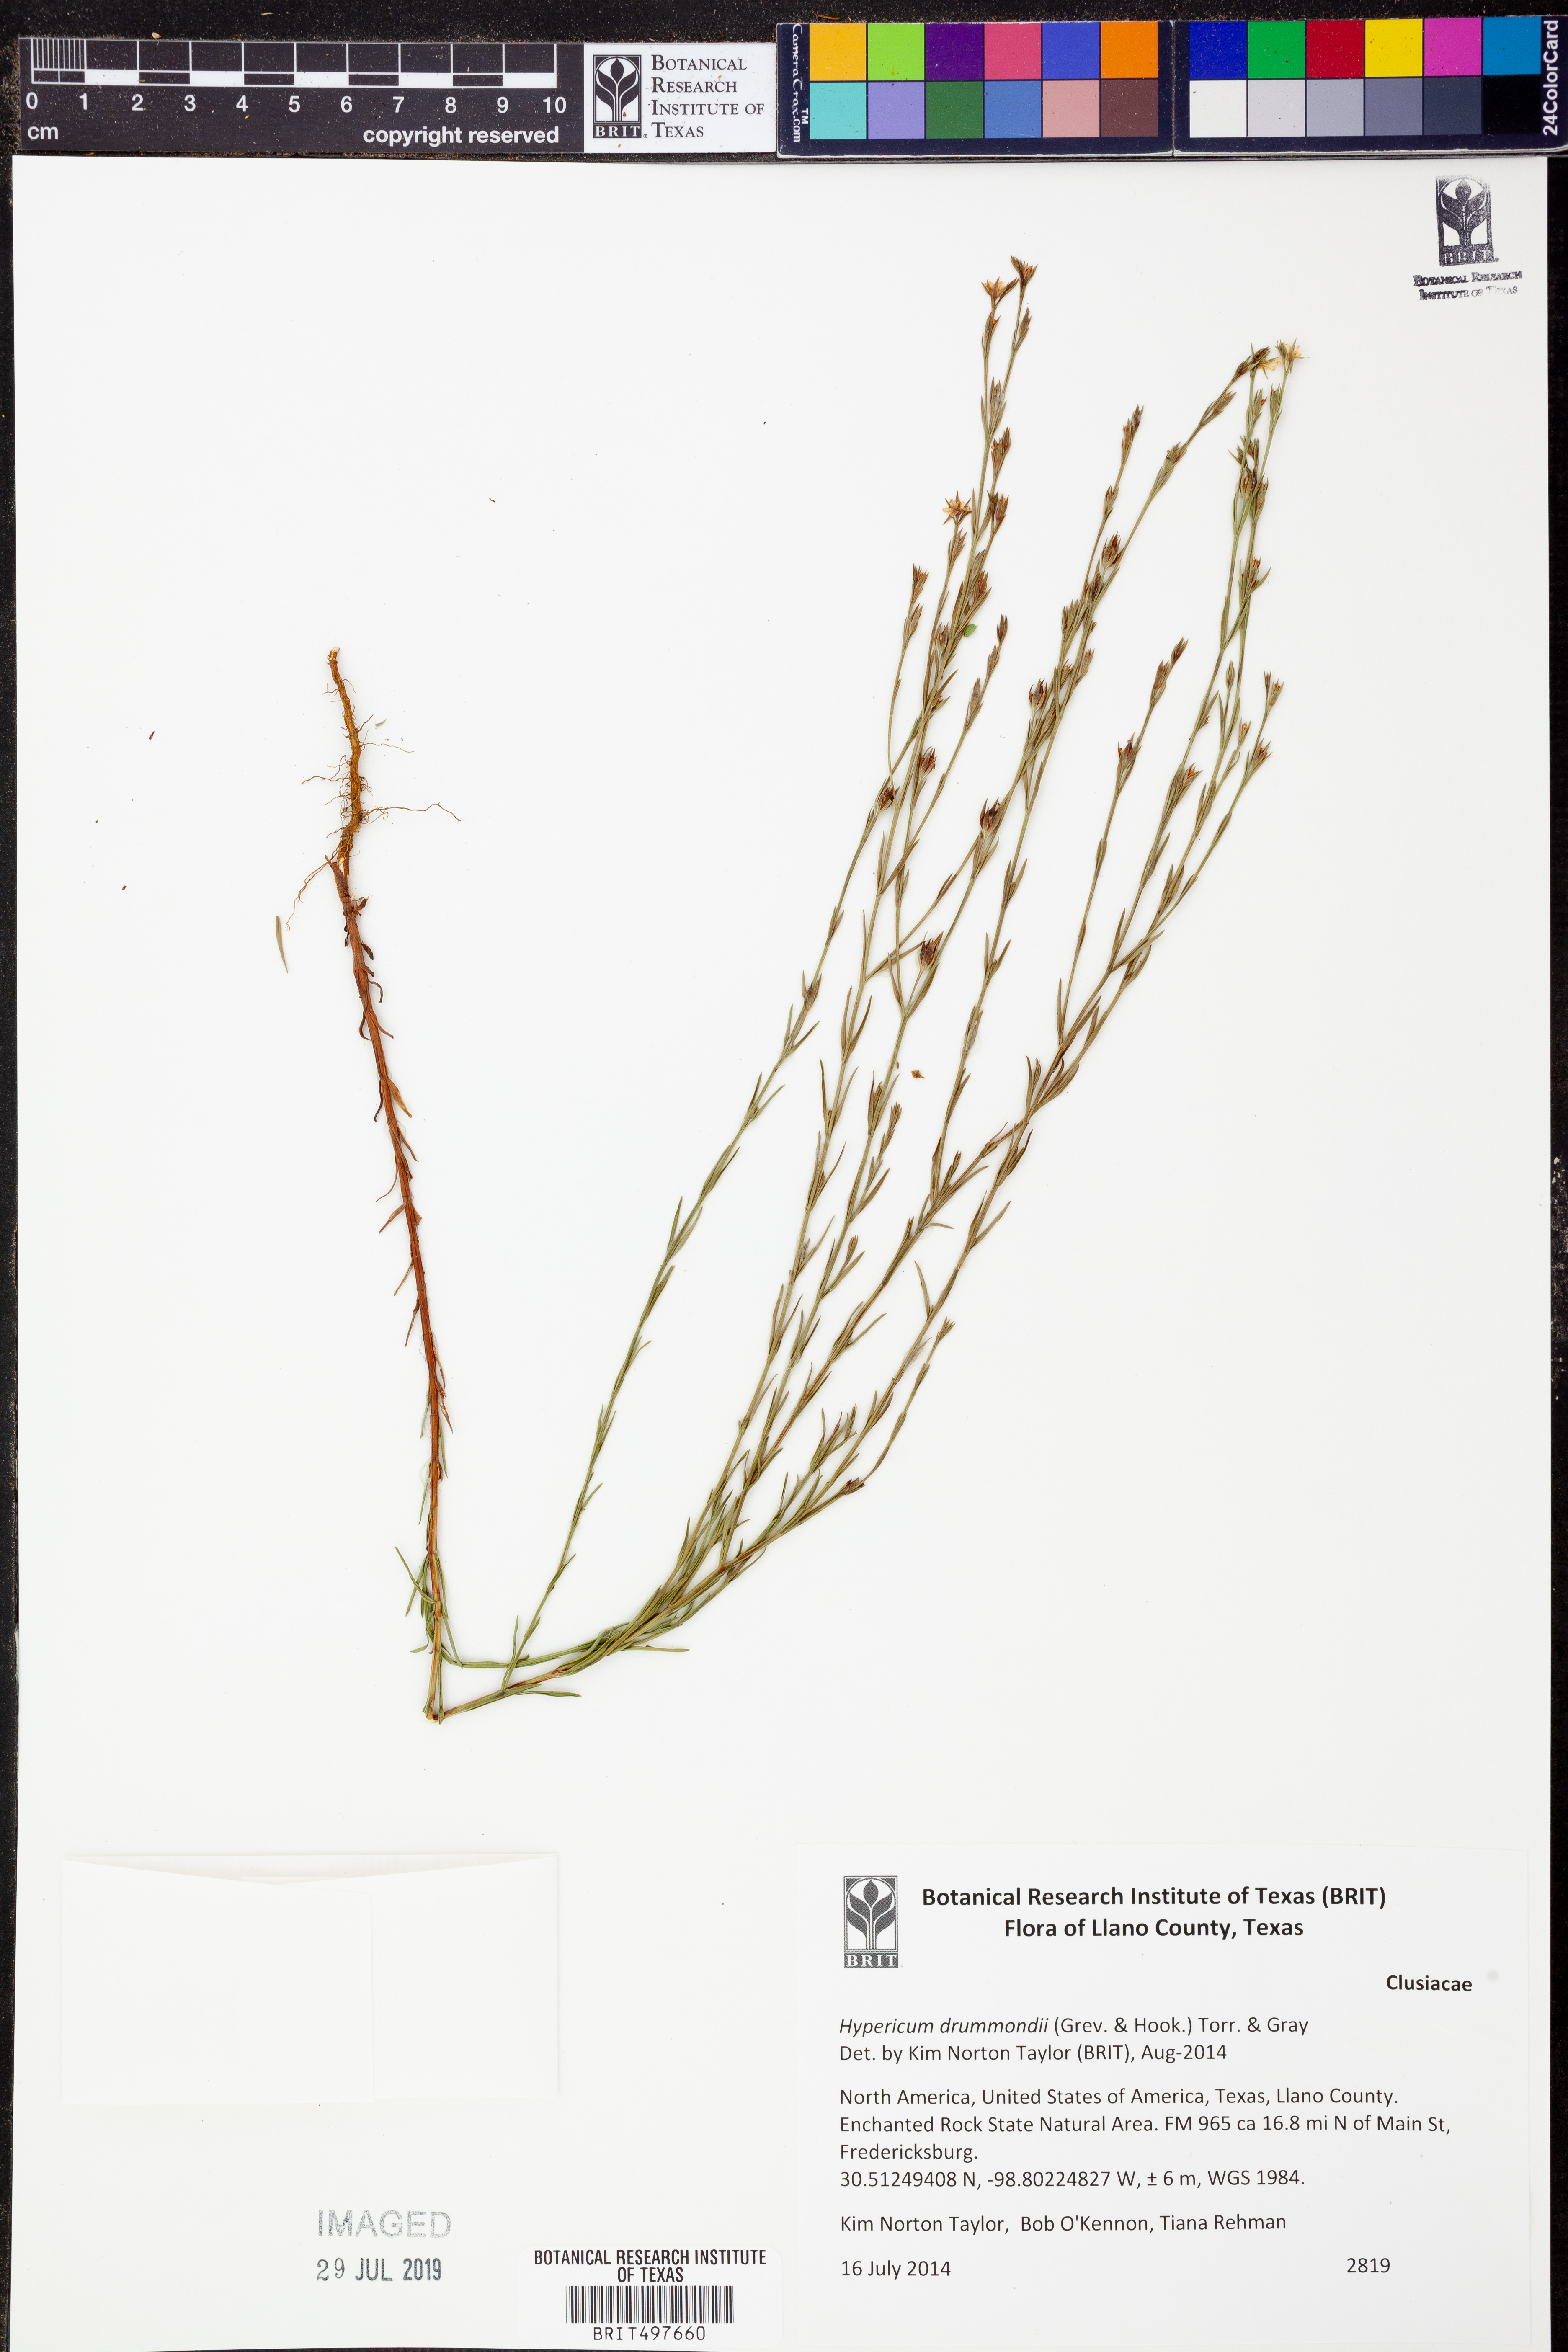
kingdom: Plantae
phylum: Tracheophyta
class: Magnoliopsida
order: Malpighiales
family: Hypericaceae
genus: Hypericum
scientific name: Hypericum drummondii
